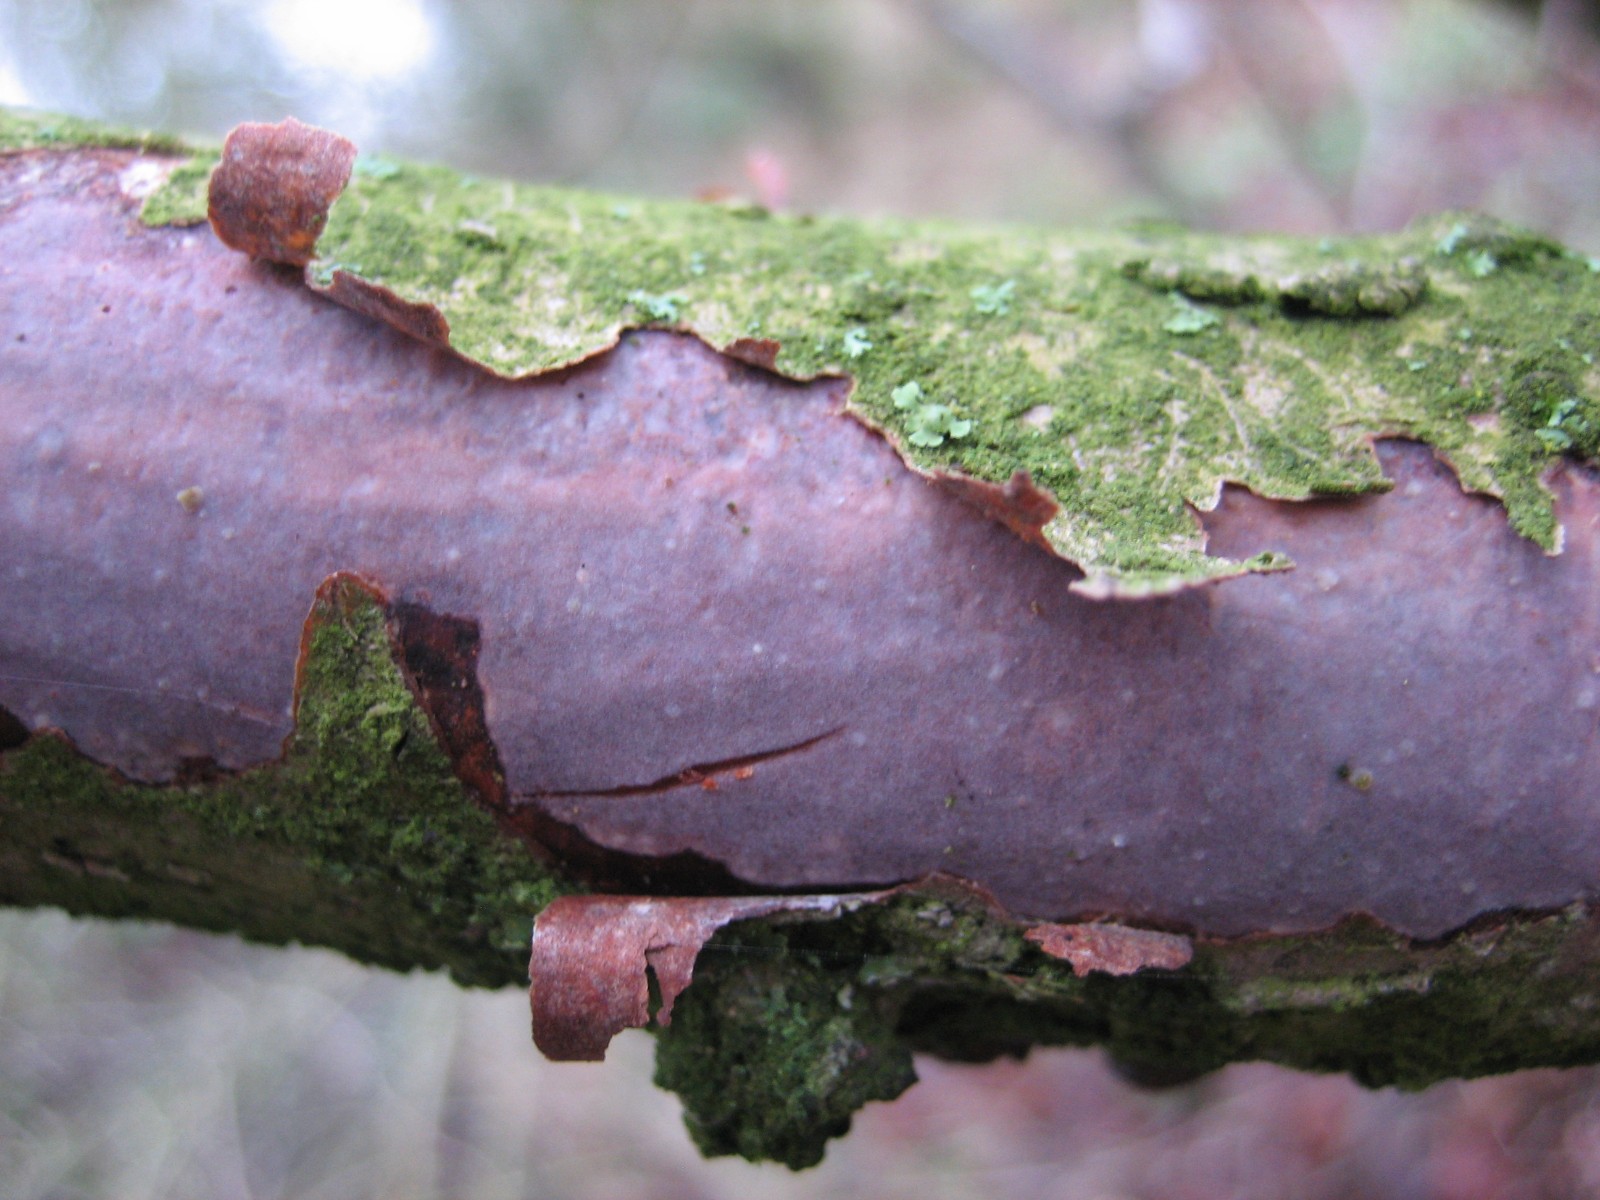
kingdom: Fungi
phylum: Basidiomycota
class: Agaricomycetes
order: Corticiales
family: Vuilleminiaceae
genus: Vuilleminia
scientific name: Vuilleminia coryli
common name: hassel-barksprænger
